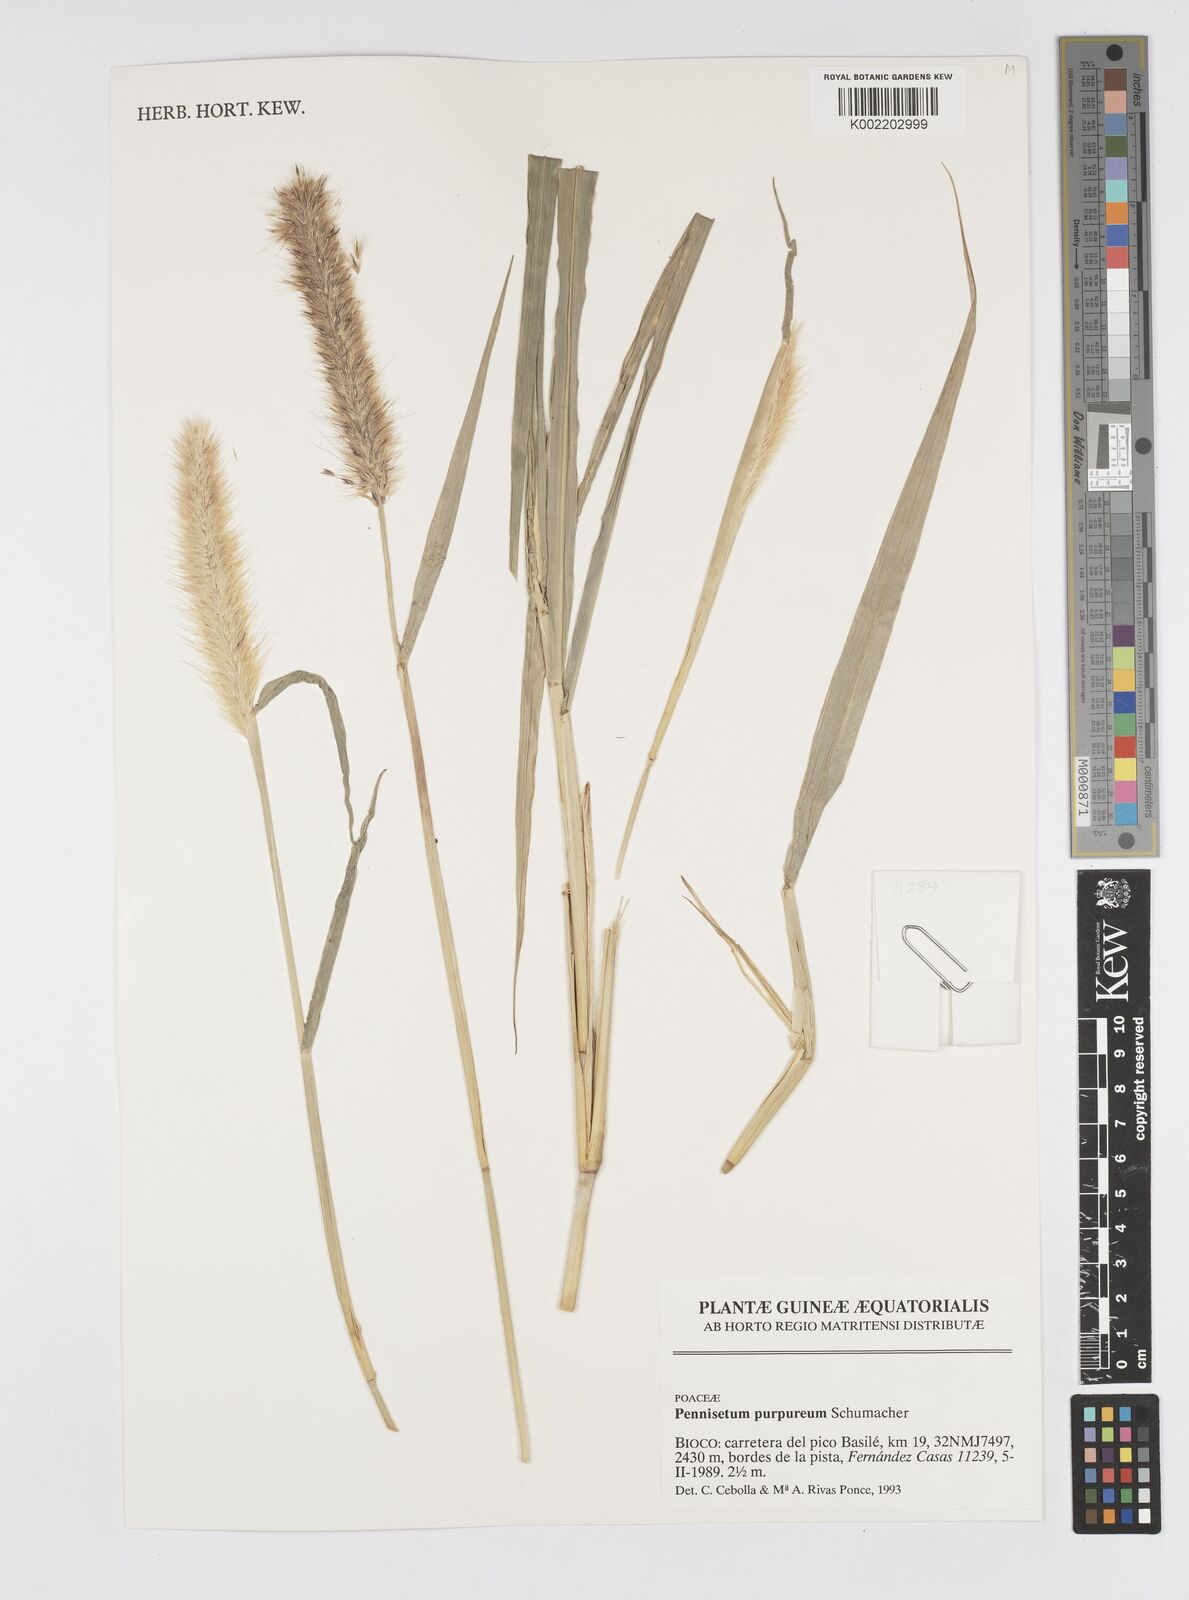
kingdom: Plantae
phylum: Tracheophyta
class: Liliopsida
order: Poales
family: Poaceae
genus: Cenchrus
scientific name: Cenchrus purpureus
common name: Elephant grass
